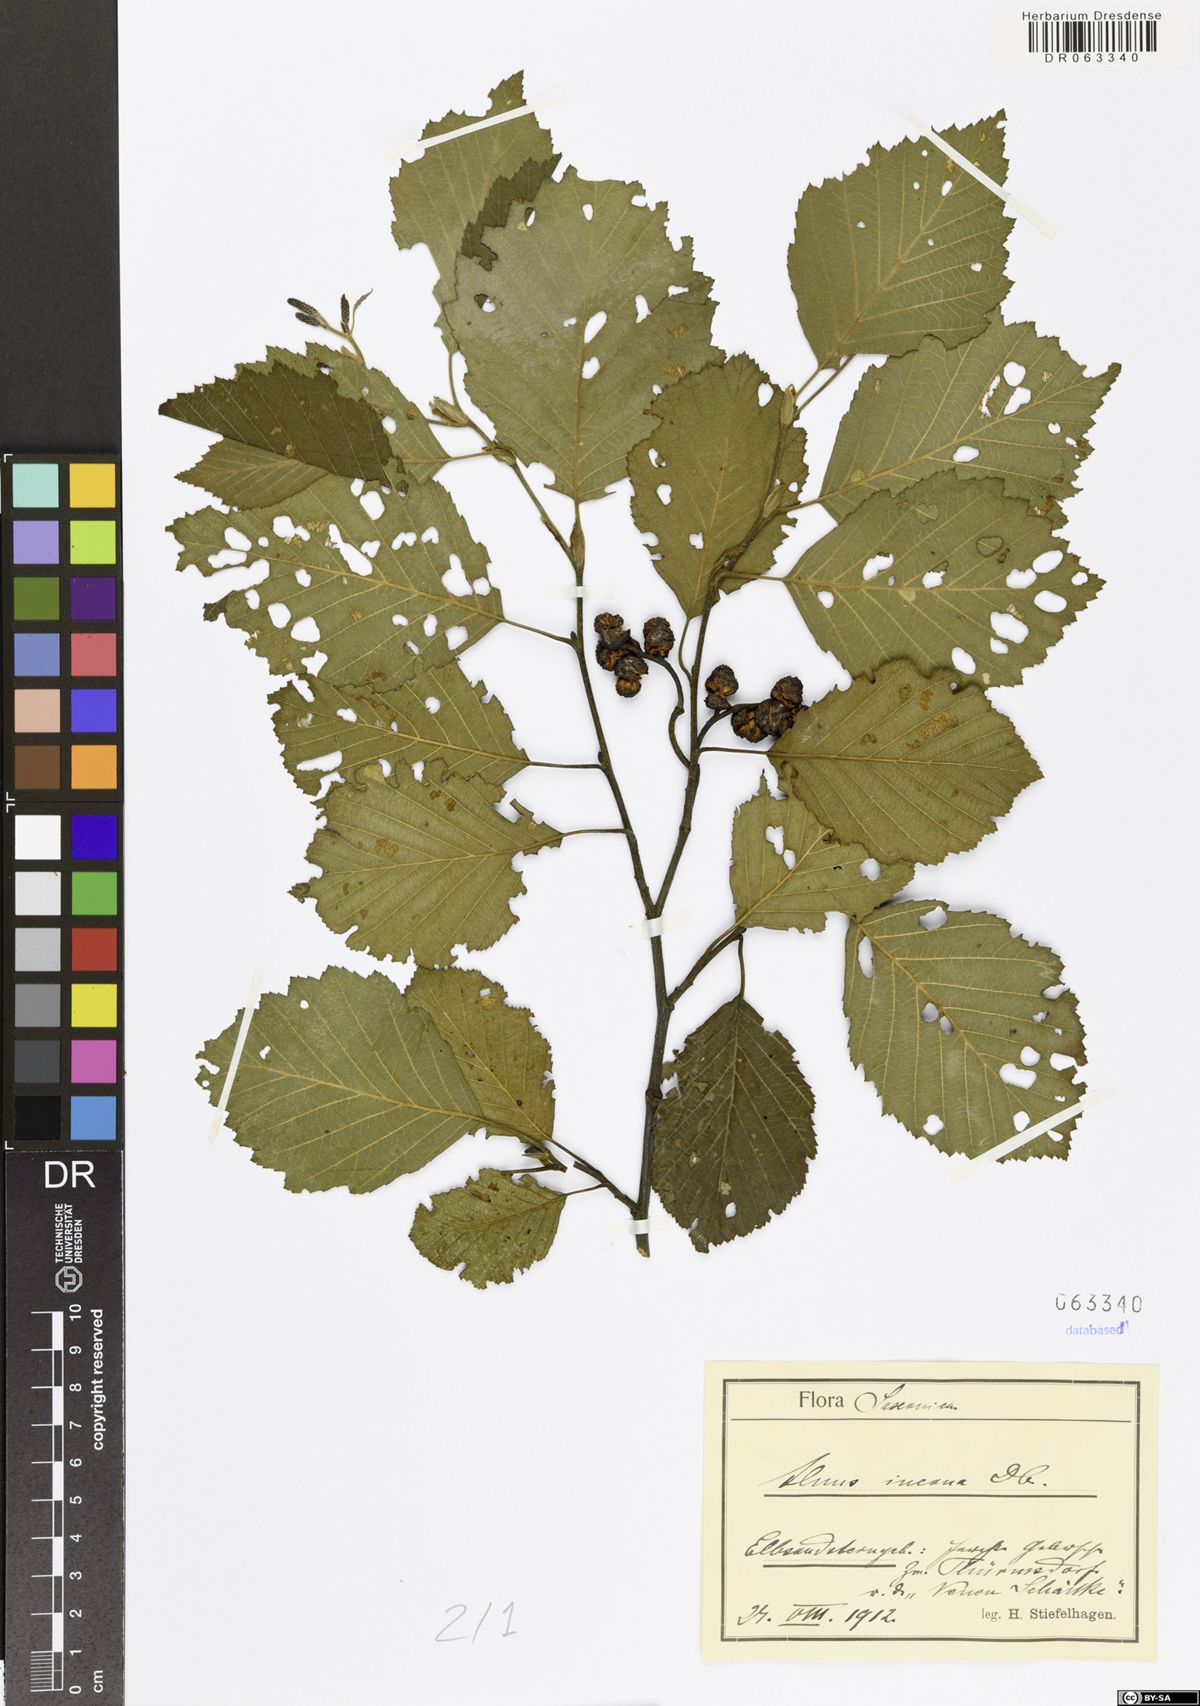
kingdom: Plantae
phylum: Tracheophyta
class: Magnoliopsida
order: Fagales
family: Betulaceae
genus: Alnus
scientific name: Alnus incana
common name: Grey alder
